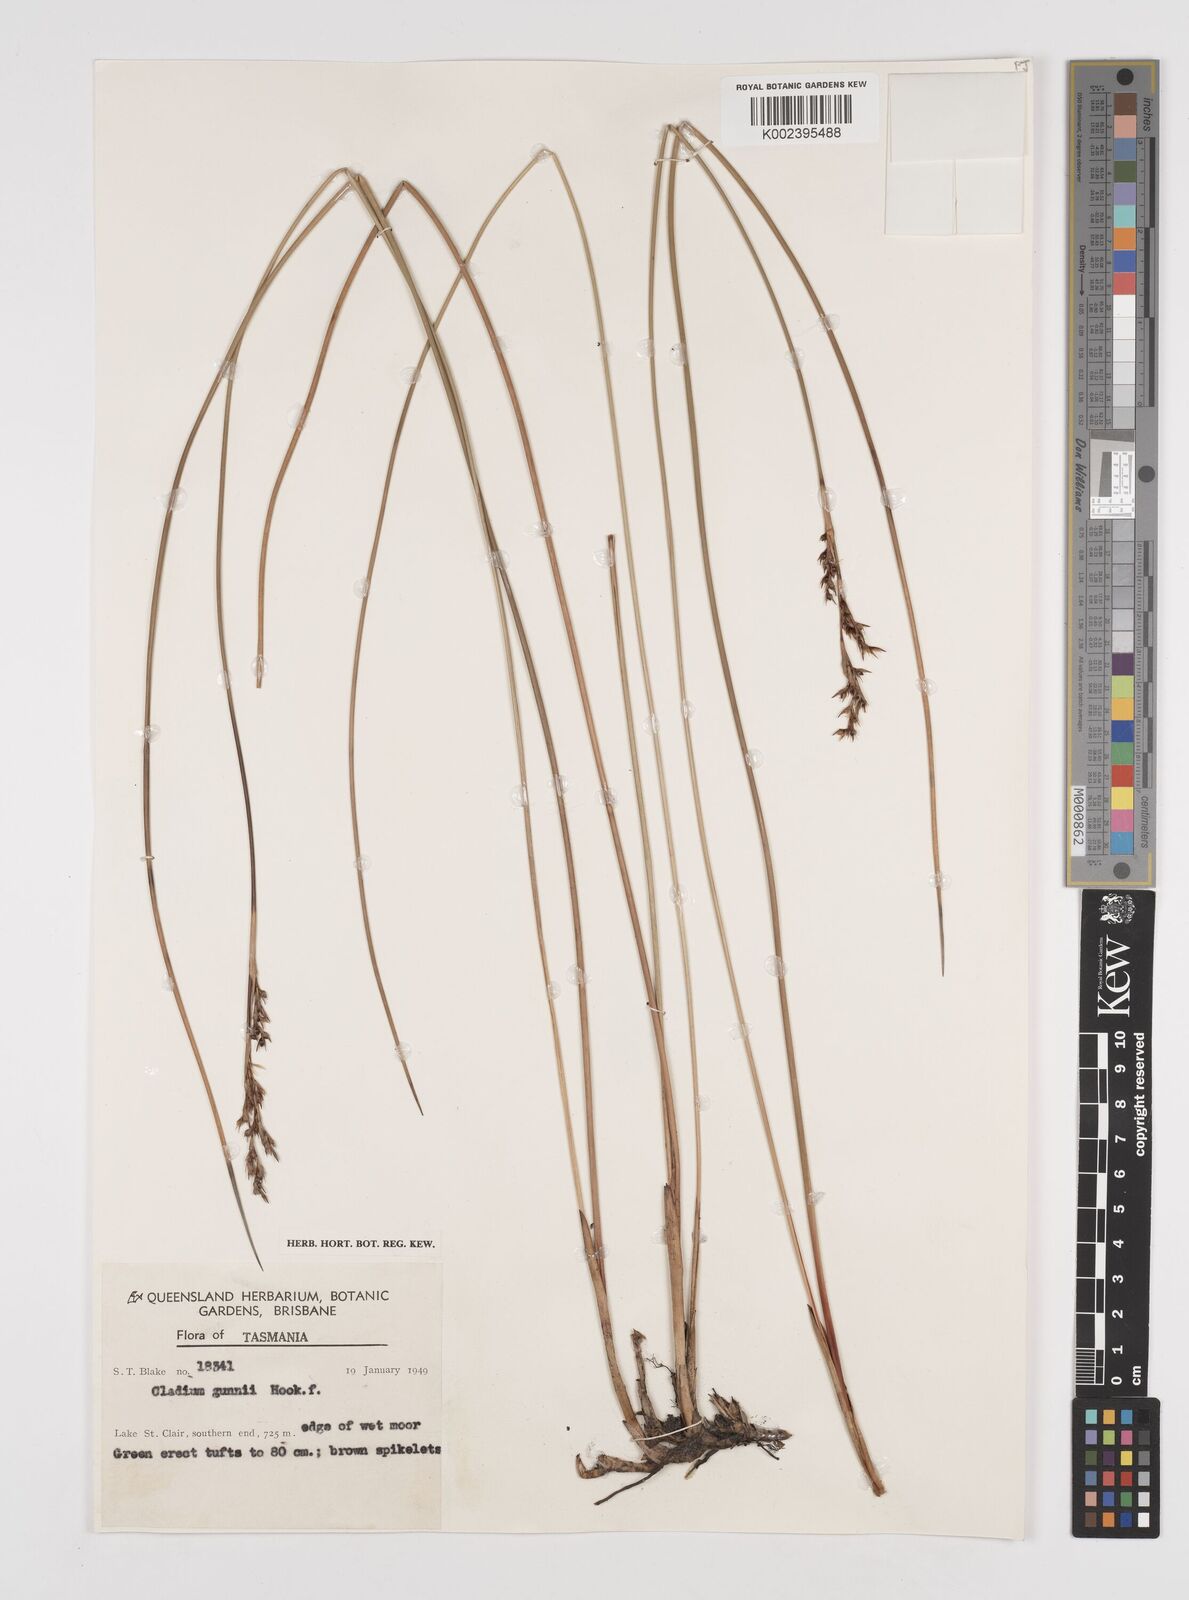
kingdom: Plantae
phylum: Tracheophyta
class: Liliopsida
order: Poales
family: Cyperaceae
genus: Machaerina
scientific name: Machaerina gunnii
